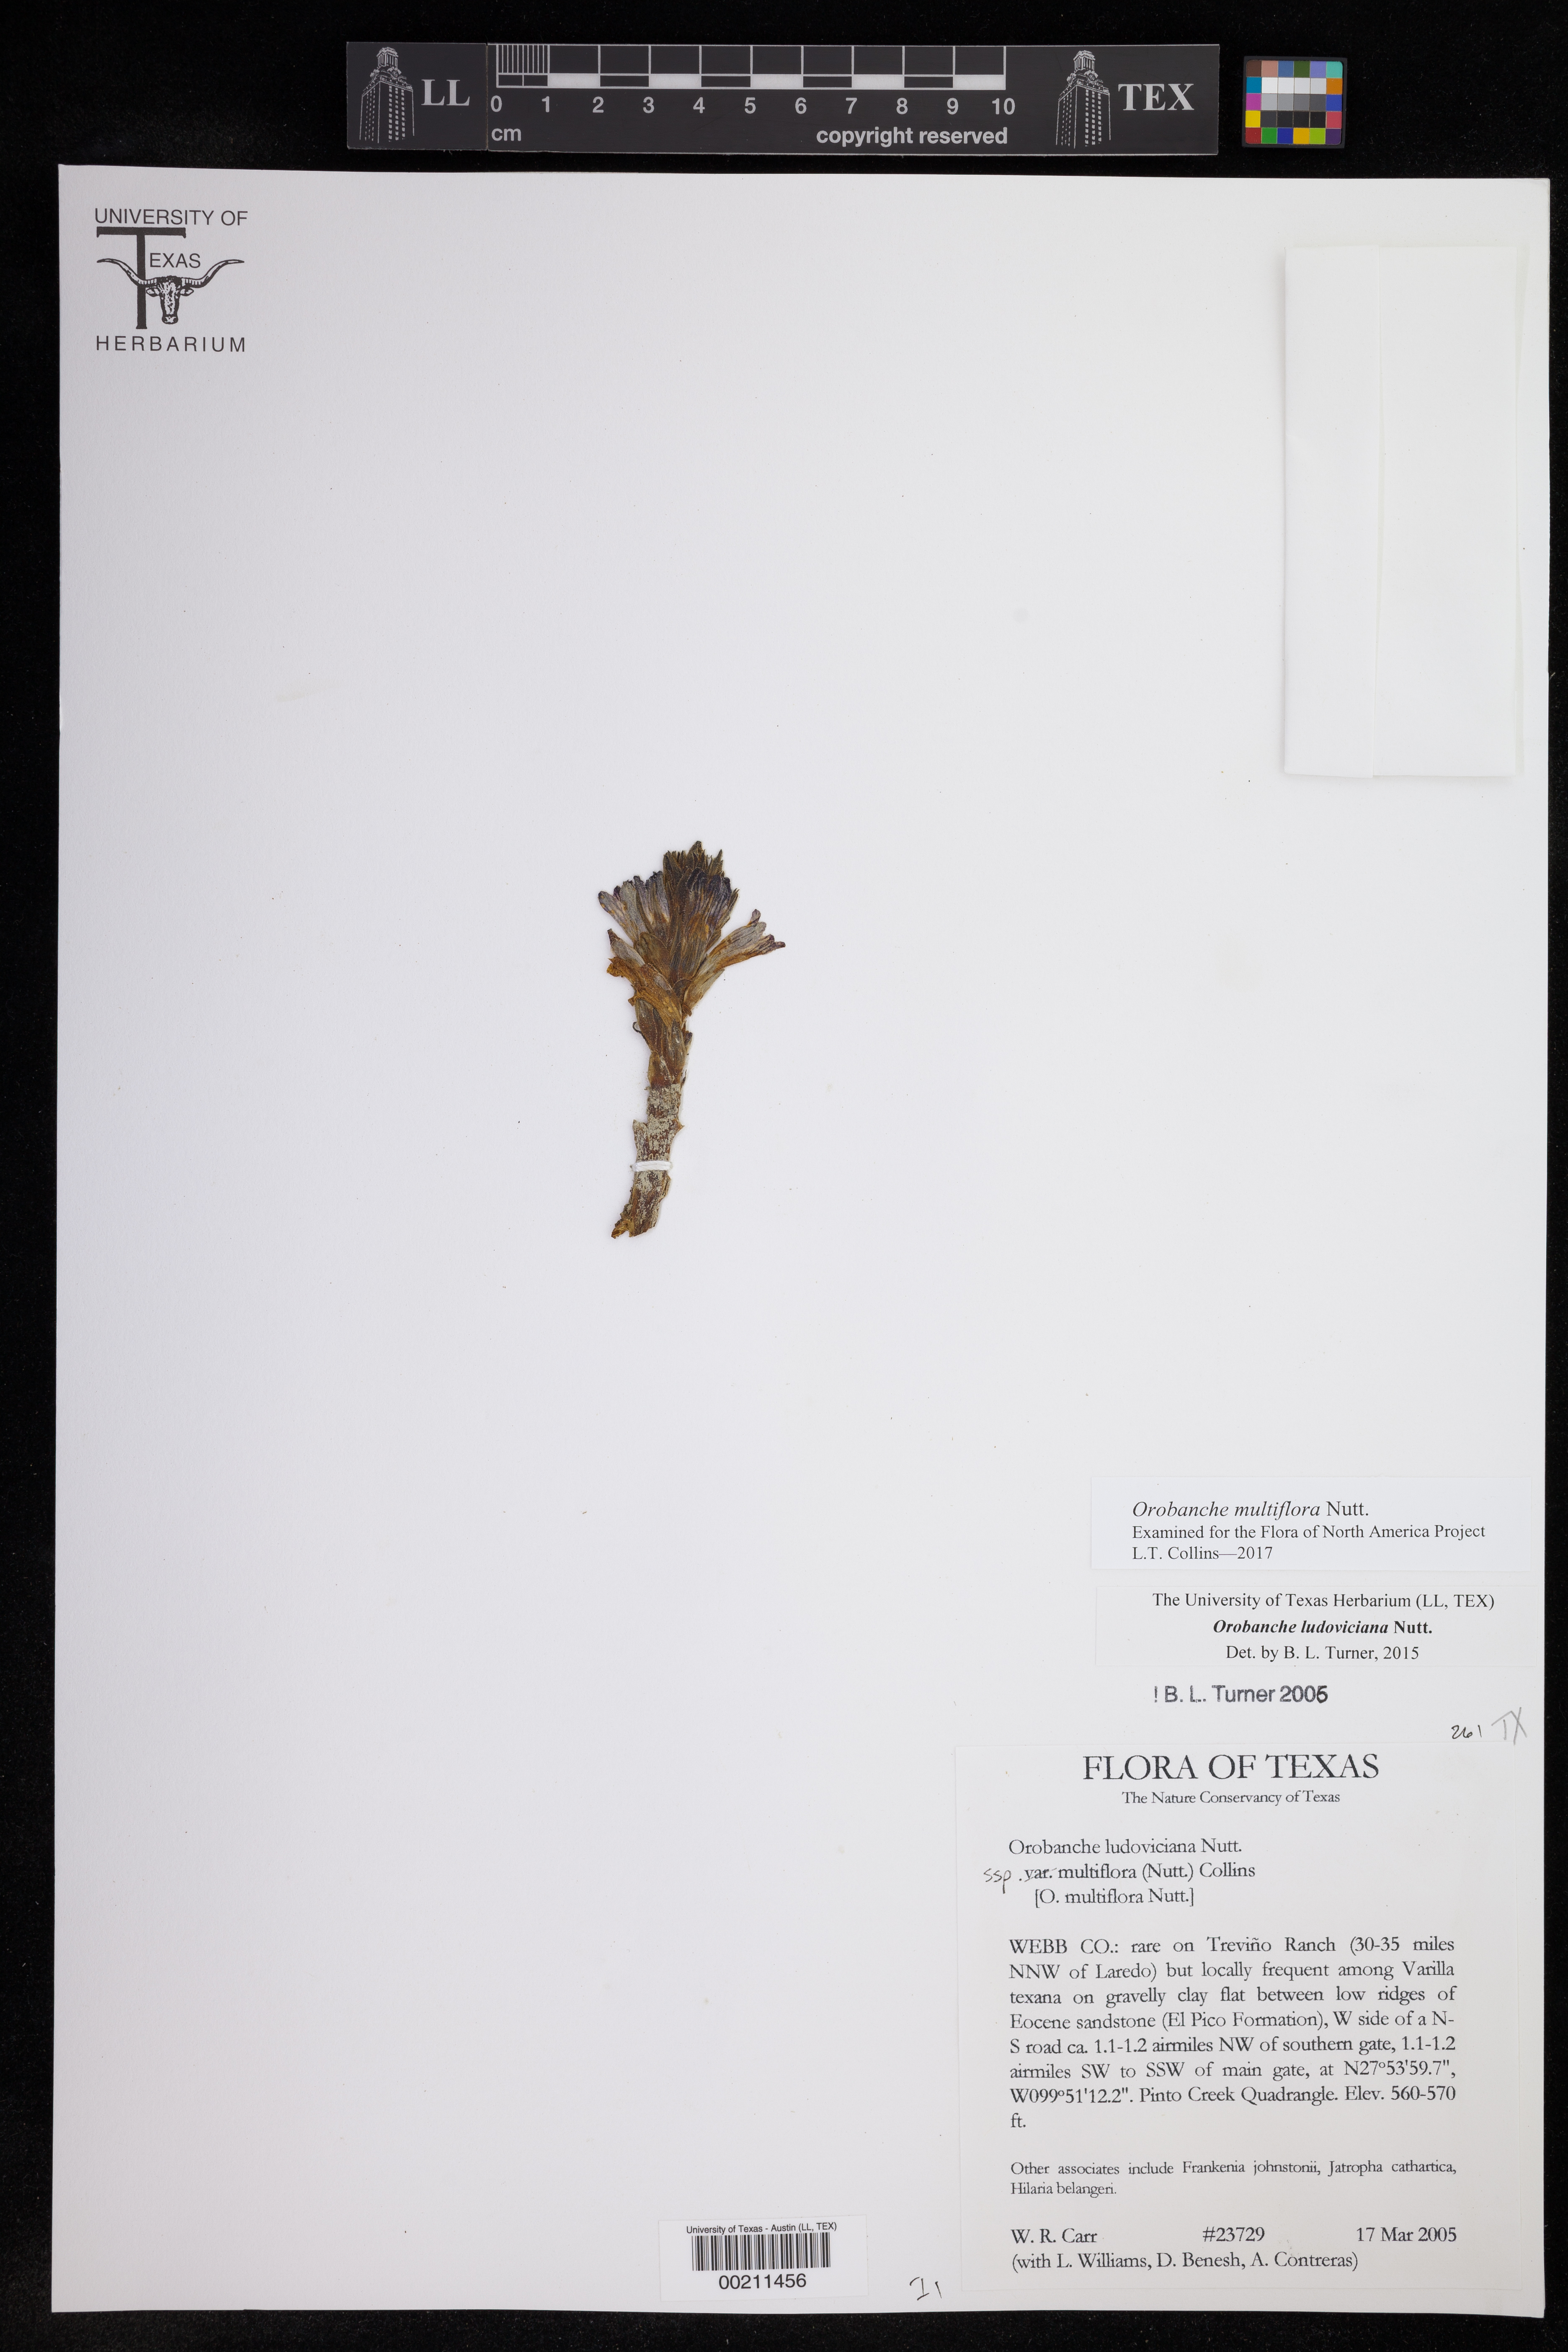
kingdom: Plantae
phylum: Tracheophyta
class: Magnoliopsida
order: Lamiales
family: Orobanchaceae
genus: Aphyllon
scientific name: Aphyllon multiflorum
